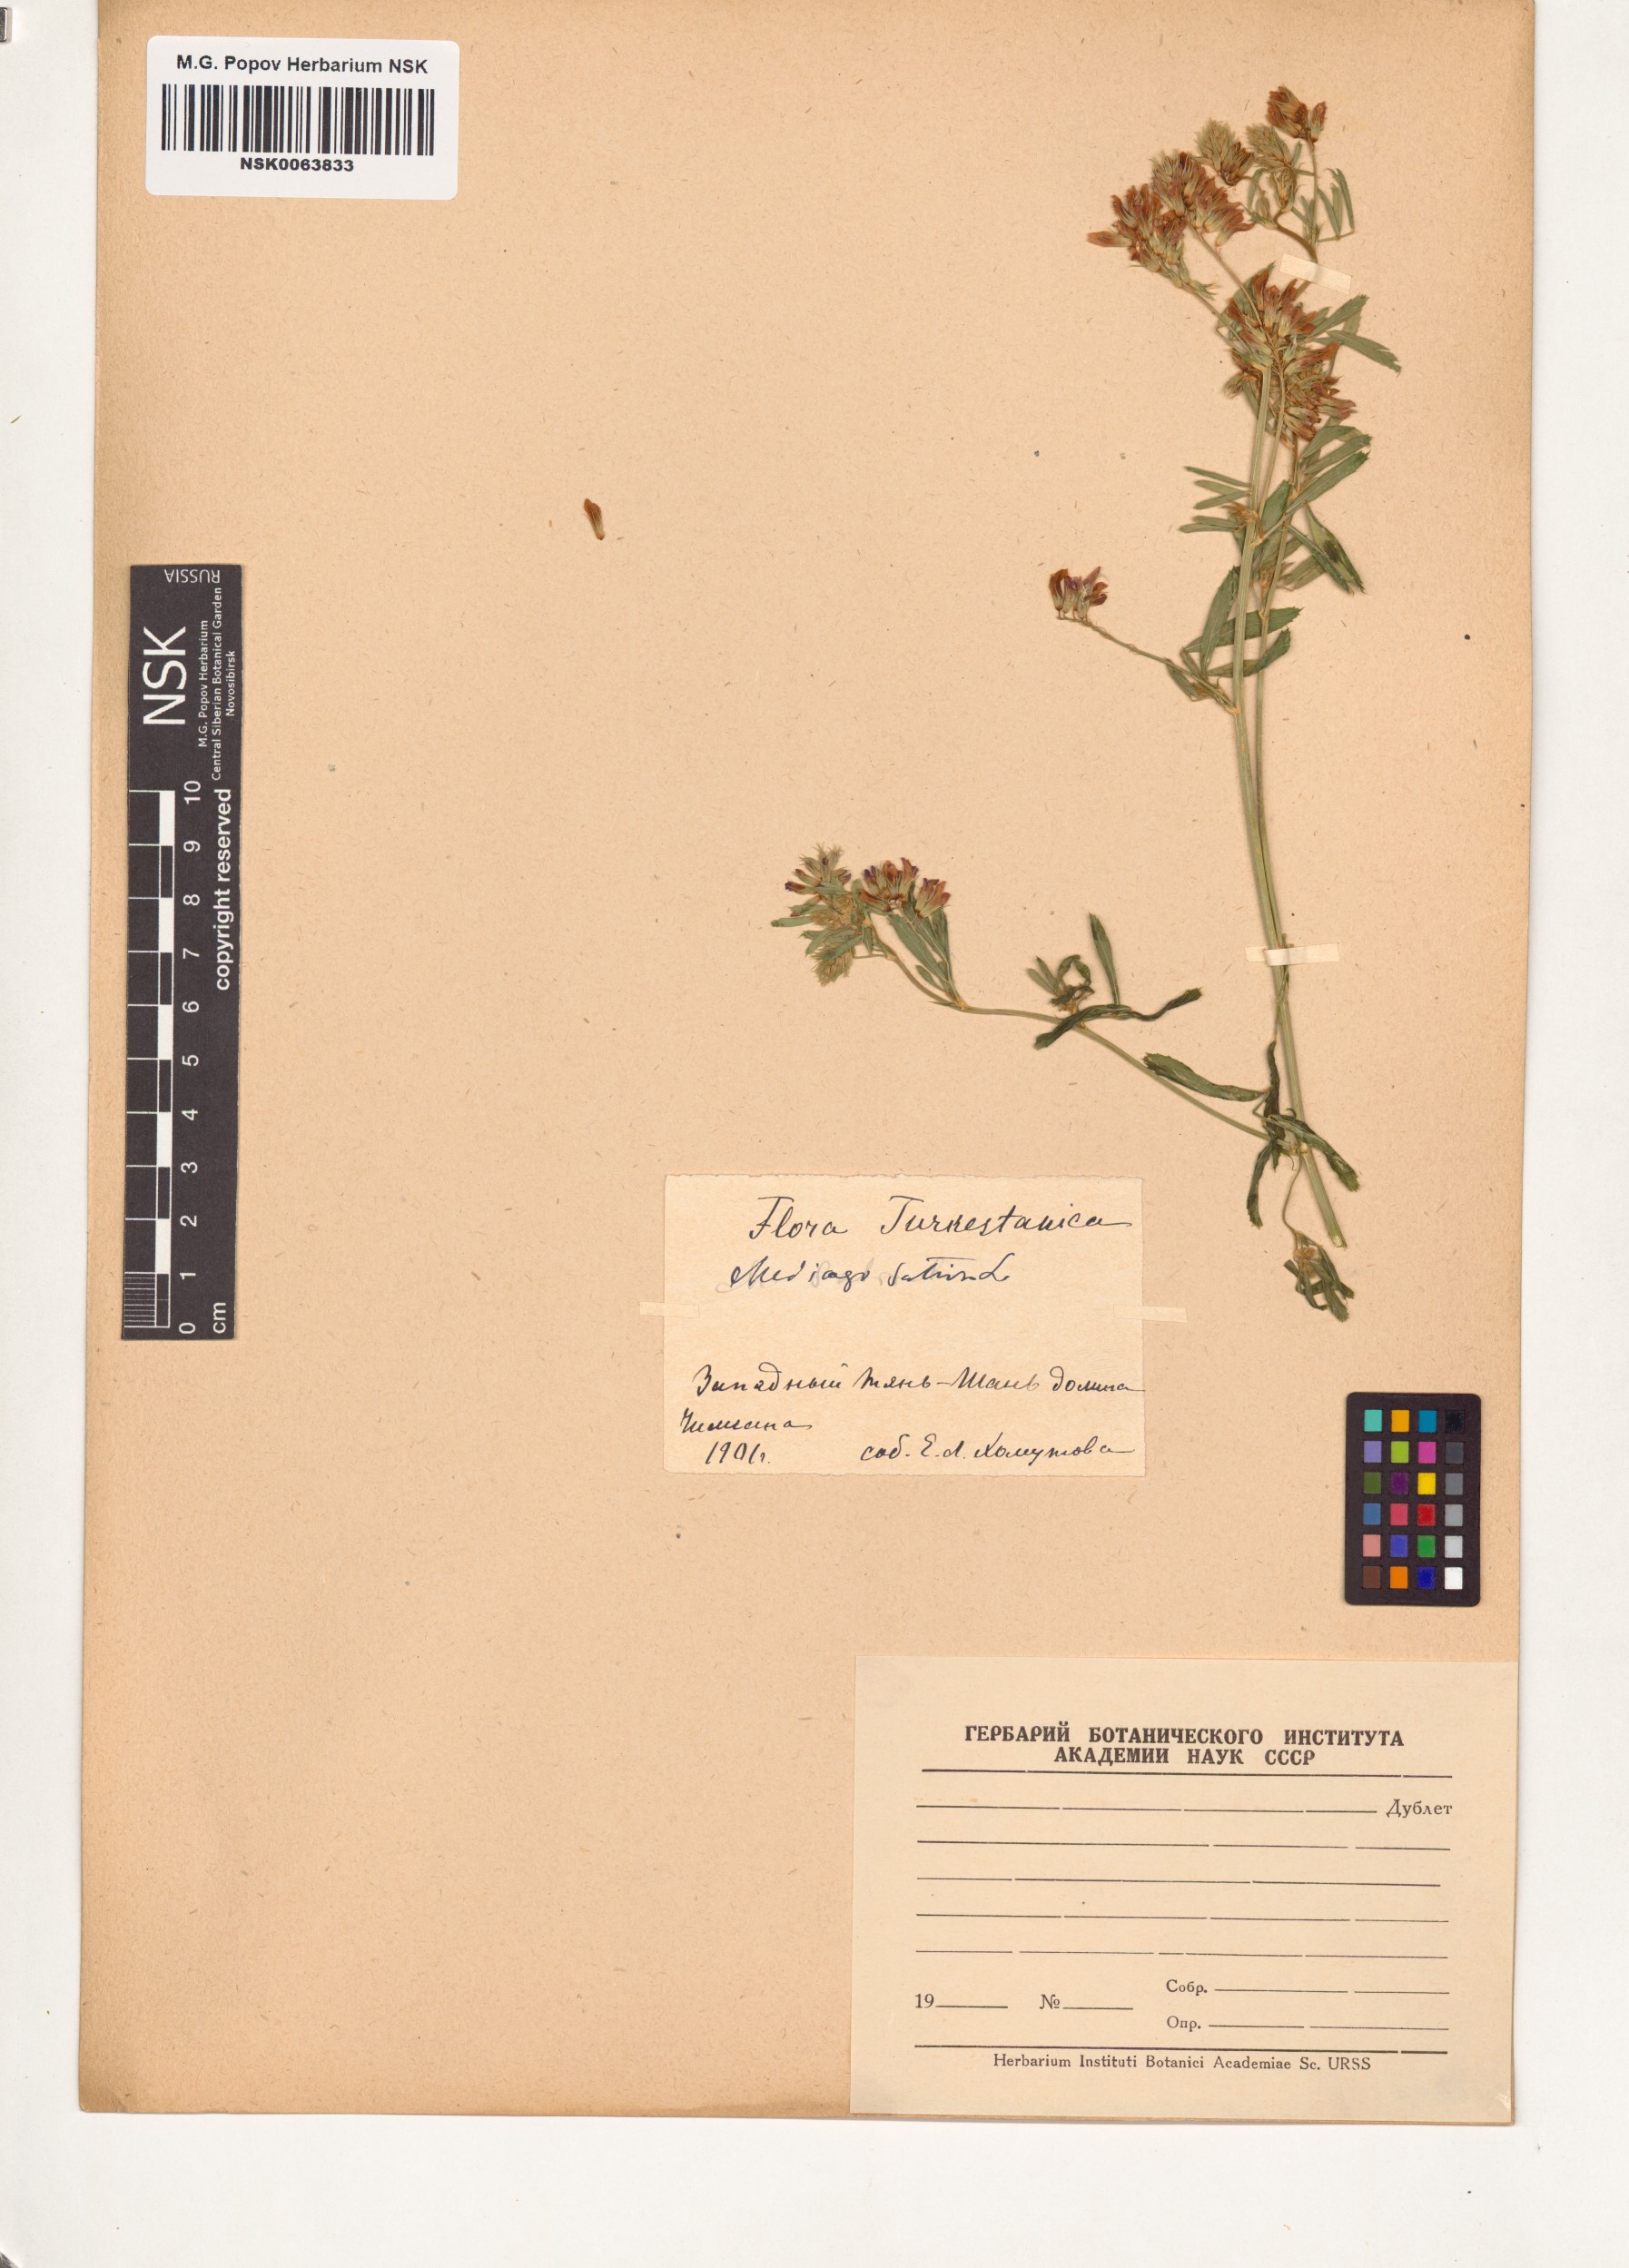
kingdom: Plantae
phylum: Tracheophyta
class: Magnoliopsida
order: Fabales
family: Fabaceae
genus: Medicago
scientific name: Medicago sativa
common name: Alfalfa
